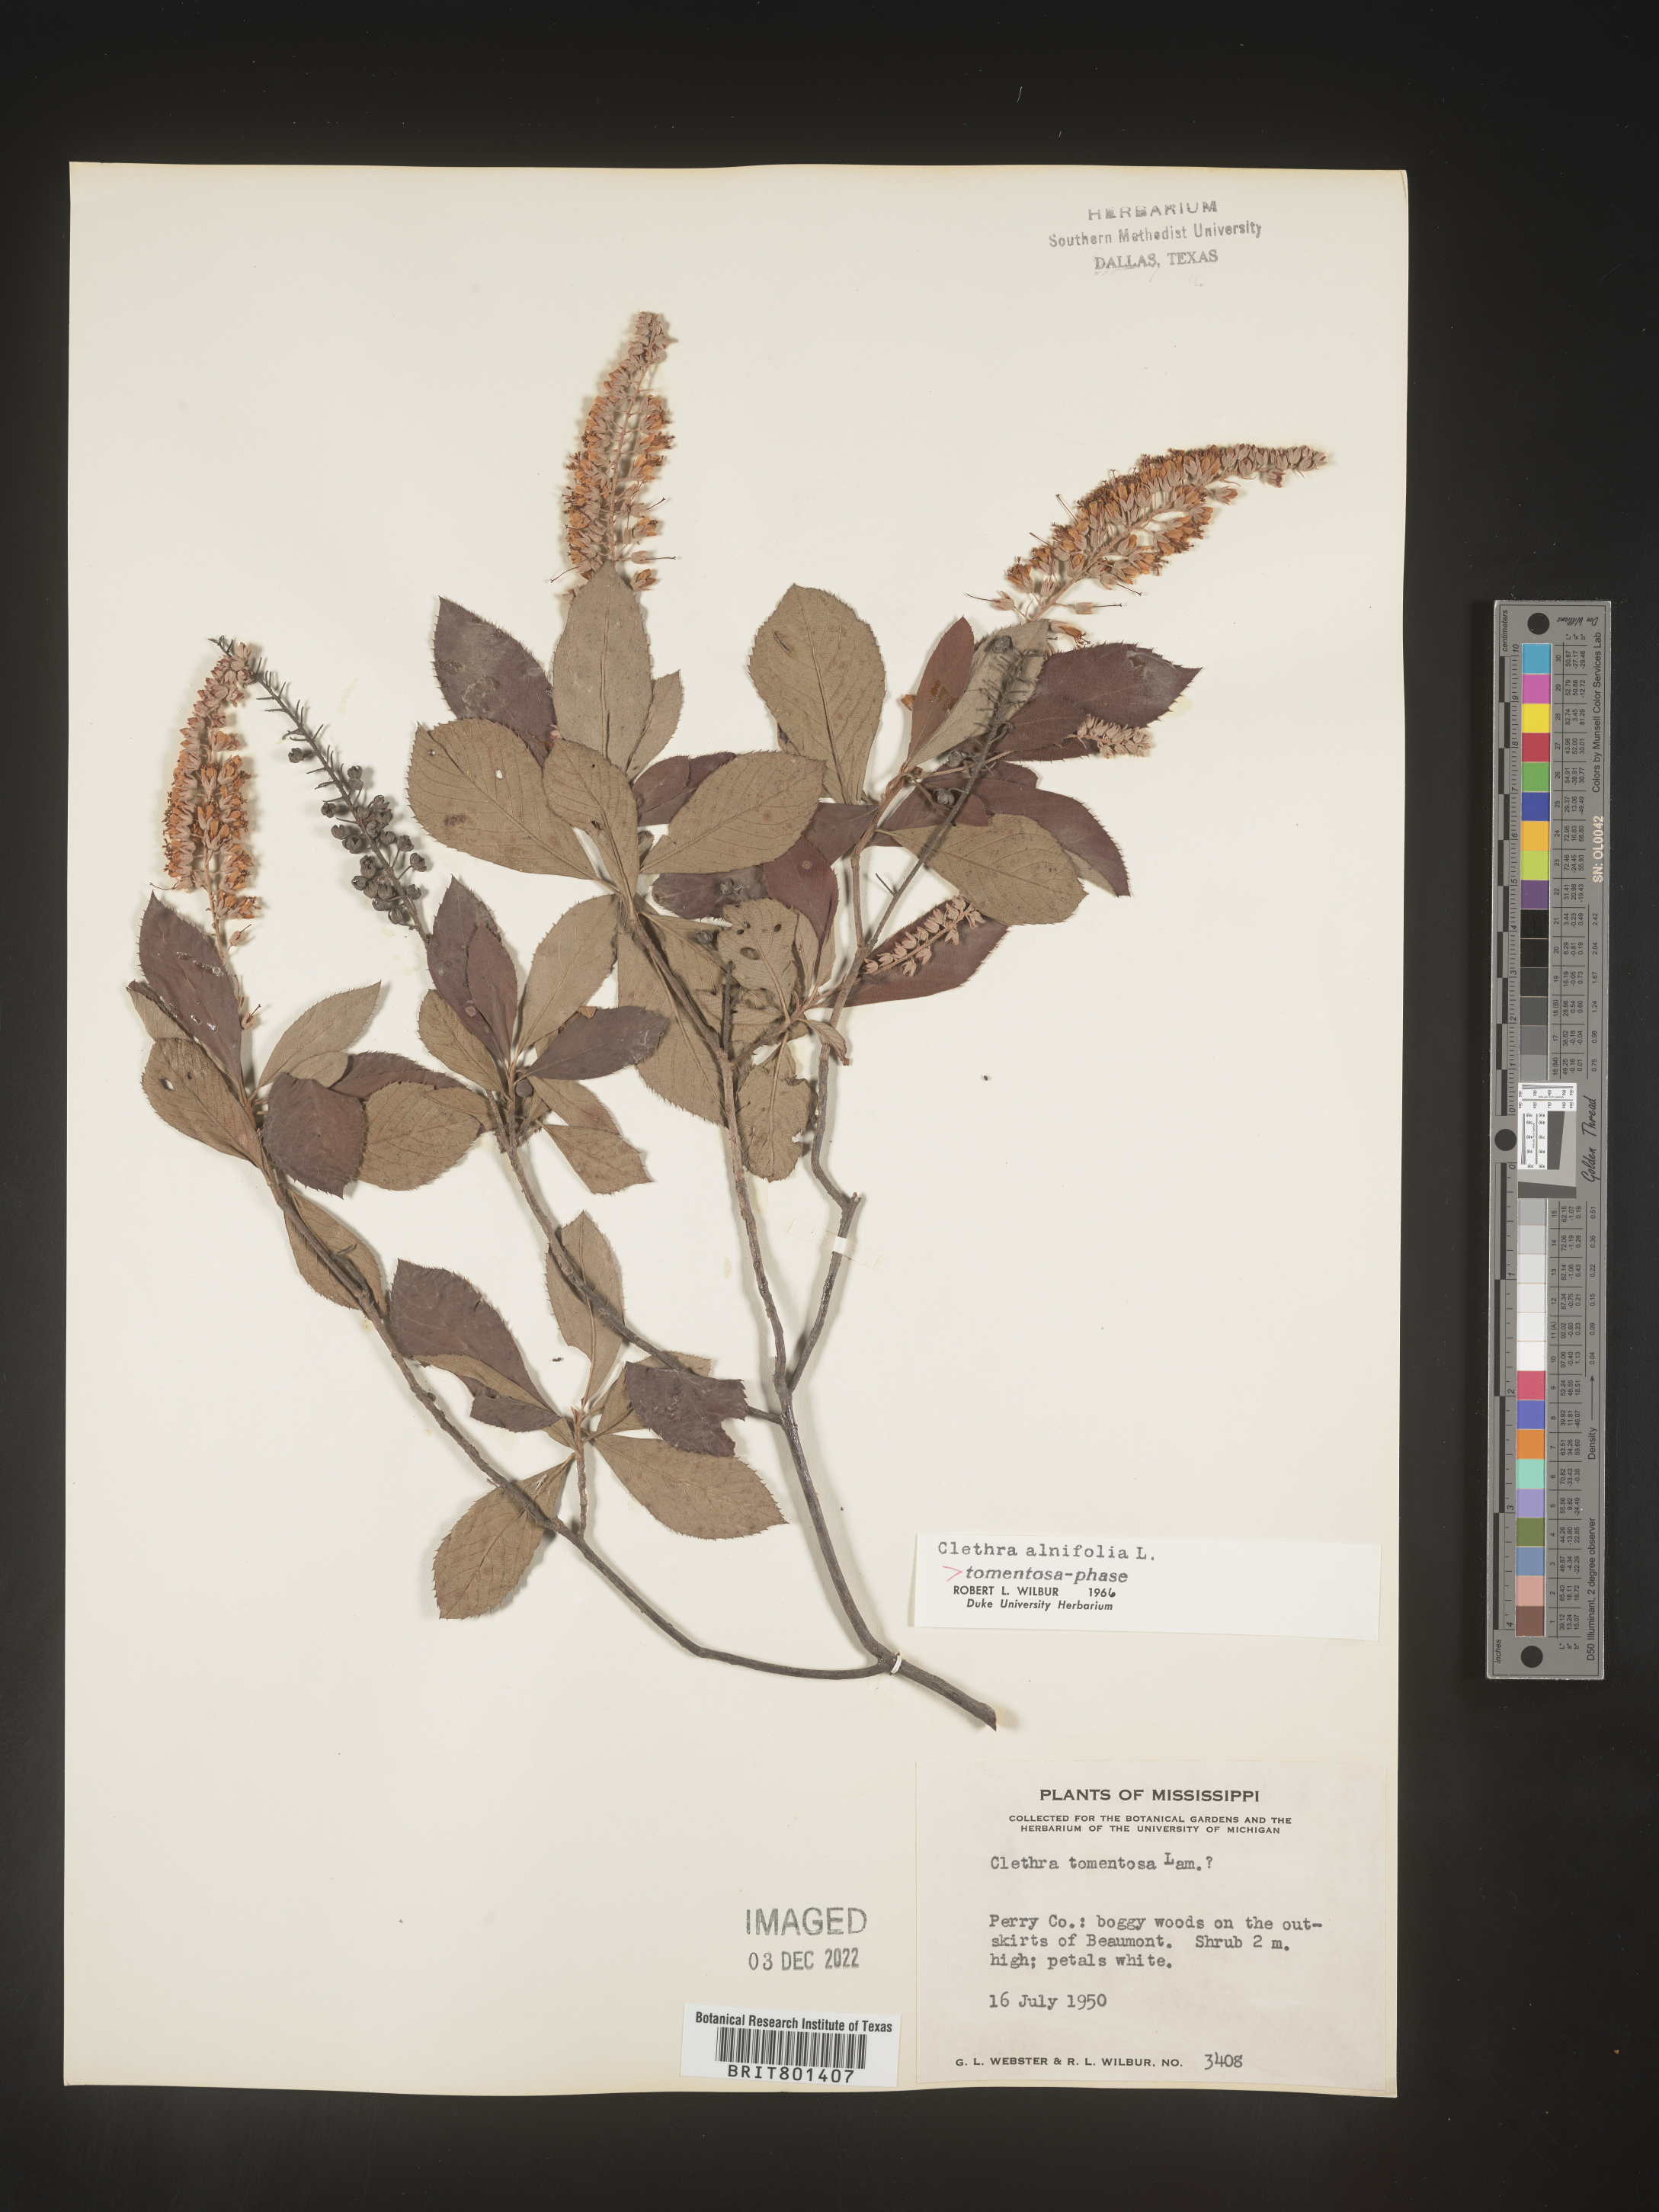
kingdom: Plantae
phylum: Tracheophyta
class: Magnoliopsida
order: Ericales
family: Clethraceae
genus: Clethra
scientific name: Clethra alnifolia
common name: Sweet pepperbush
